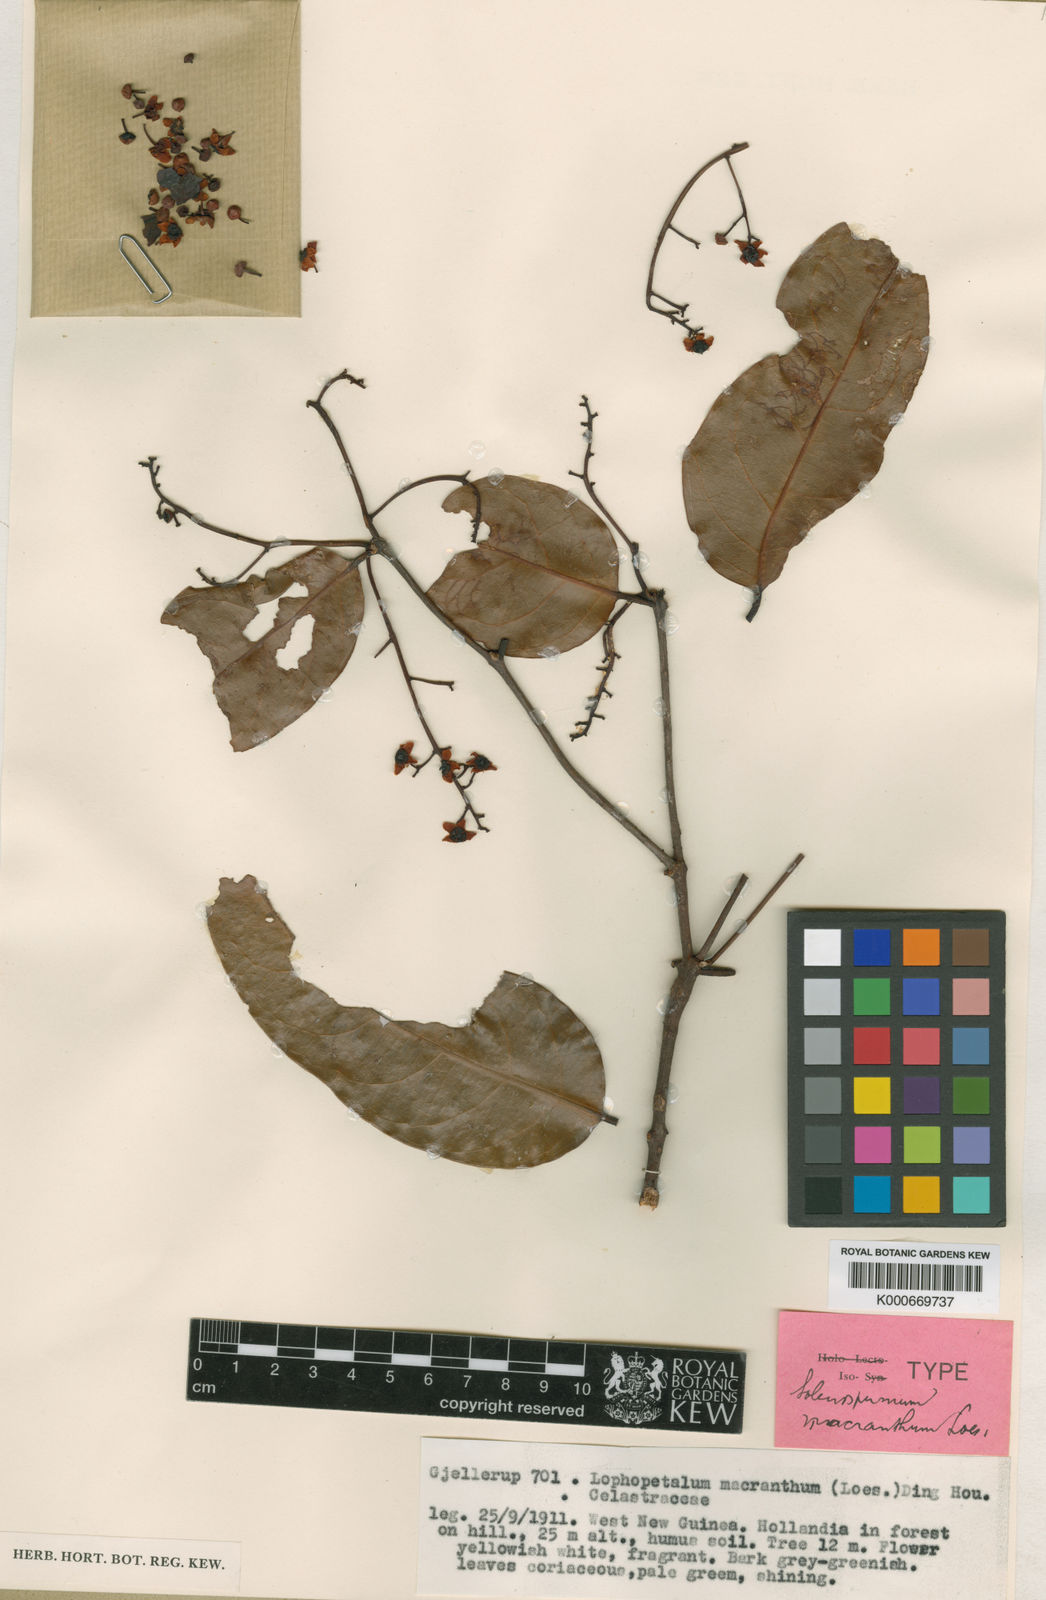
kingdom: Plantae
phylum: Tracheophyta
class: Magnoliopsida
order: Celastrales
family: Celastraceae
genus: Lophopetalum
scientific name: Lophopetalum macranthum
